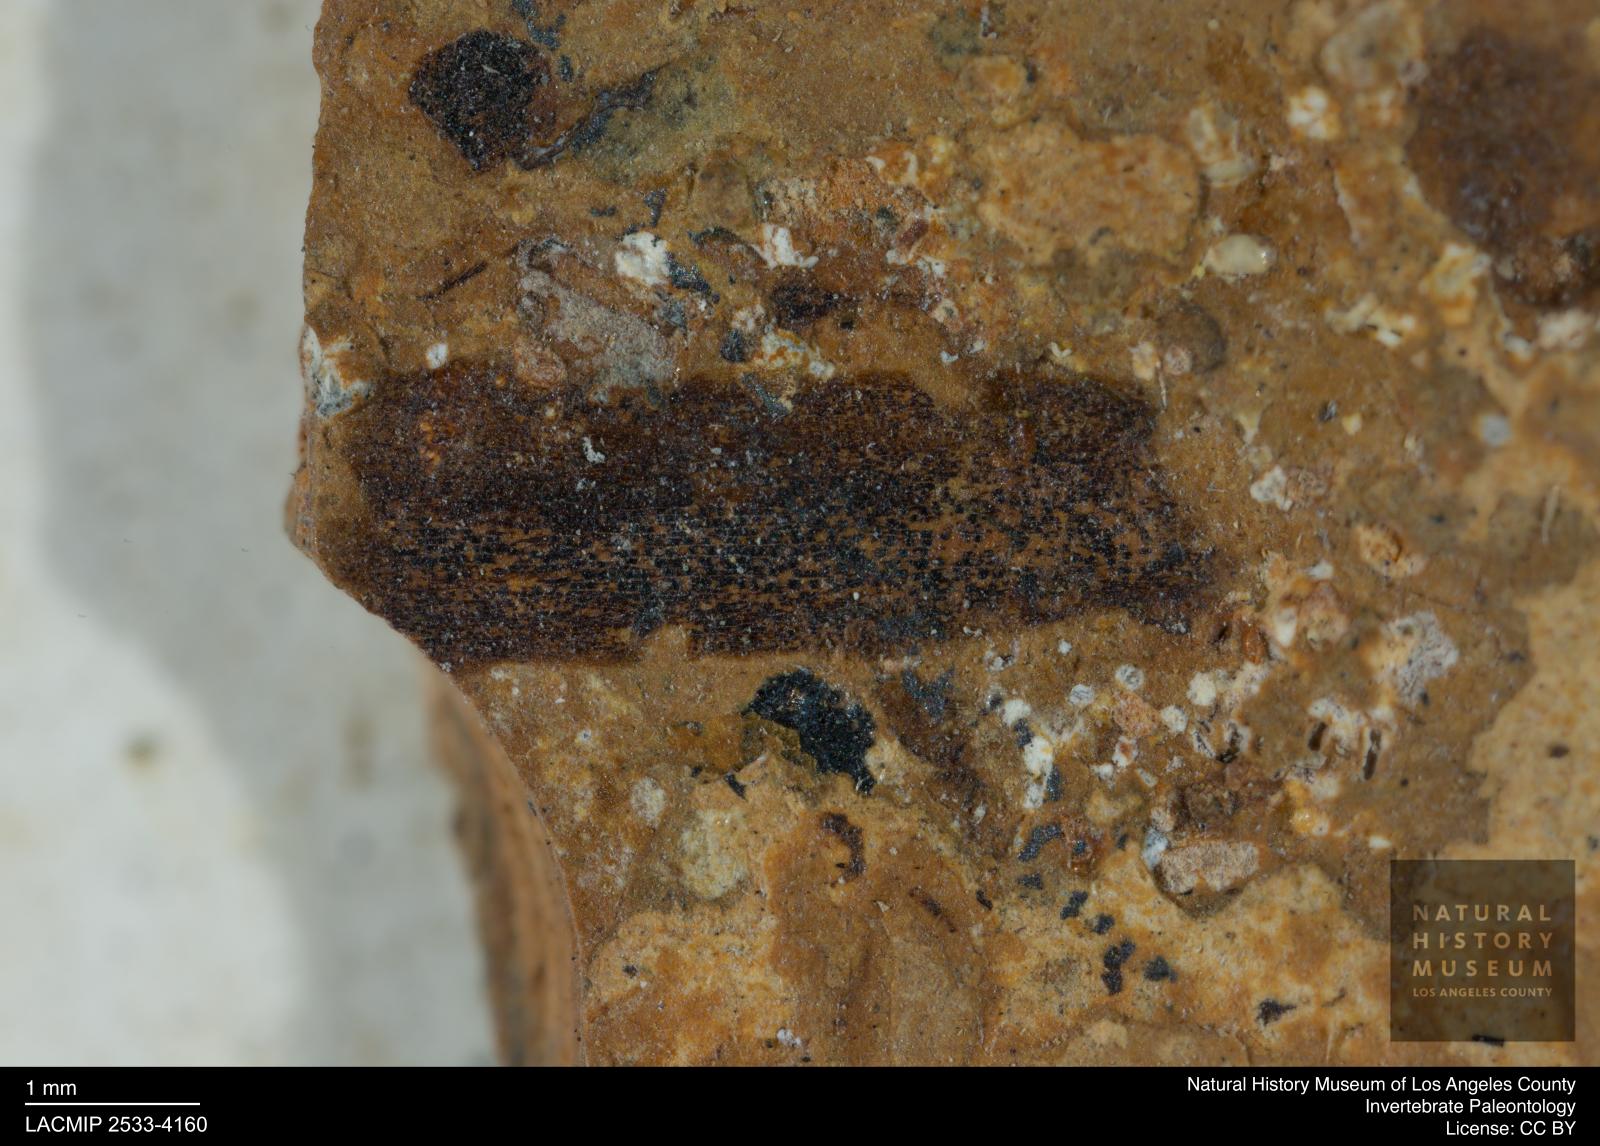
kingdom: Animalia
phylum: Arthropoda
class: Insecta
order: Thysanoptera
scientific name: Thysanoptera
